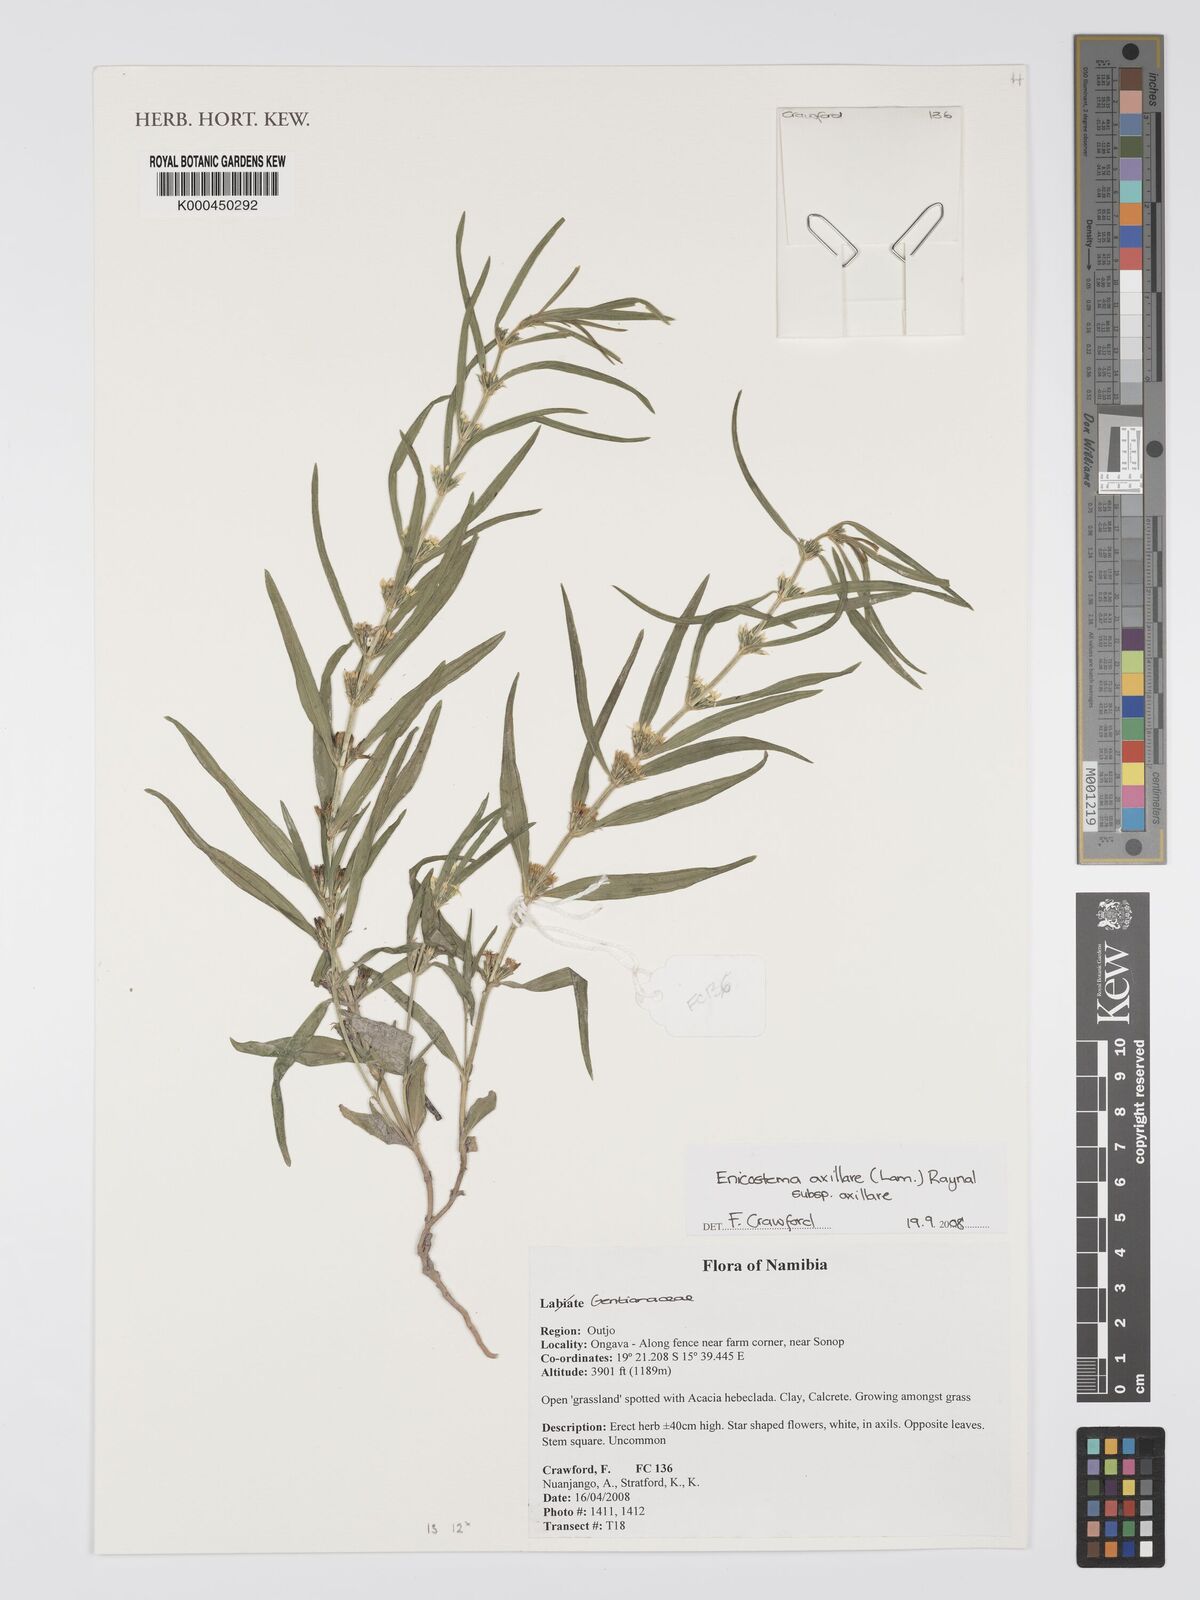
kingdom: Plantae
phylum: Tracheophyta
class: Magnoliopsida
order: Gentianales
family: Gentianaceae
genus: Enicostema
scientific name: Enicostema axillare
